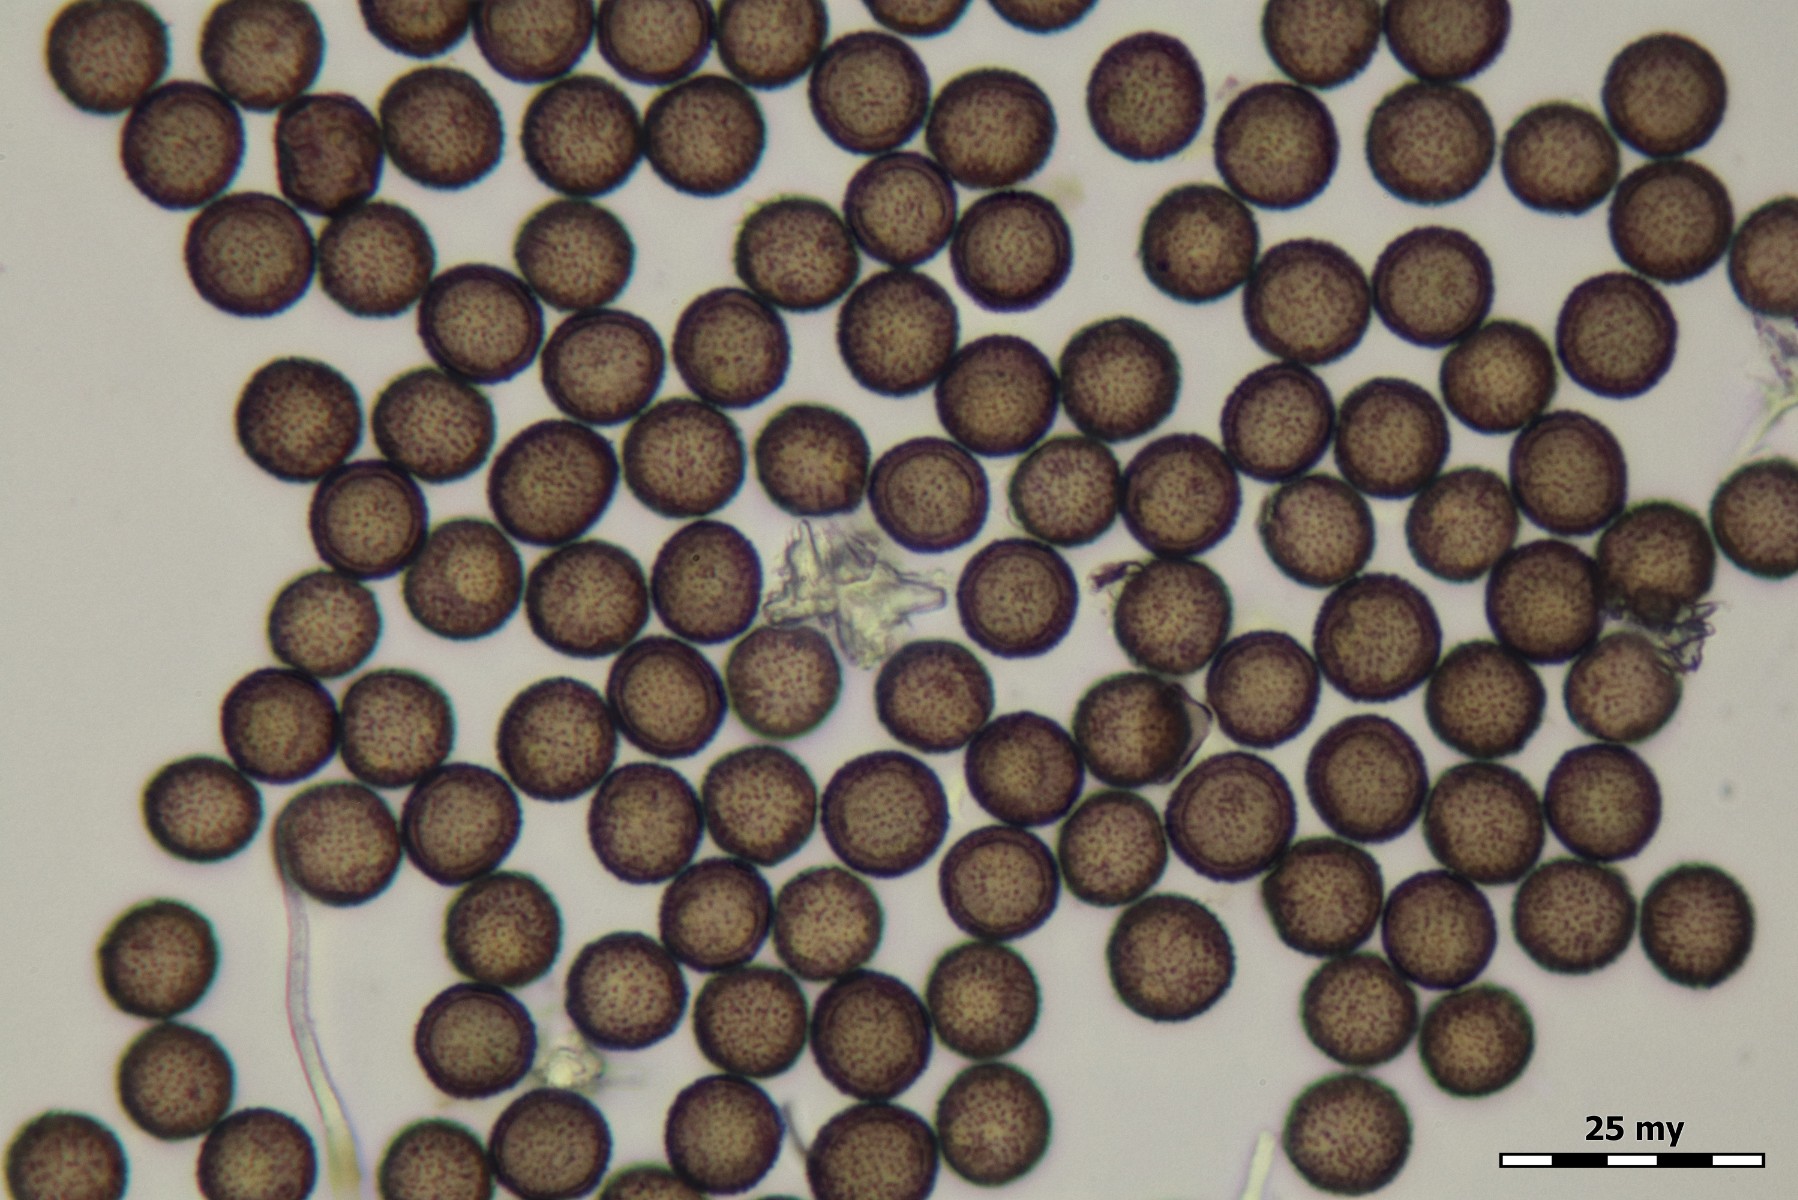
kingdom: Protozoa
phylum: Mycetozoa
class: Myxomycetes
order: Physarales
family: Didymiaceae
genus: Didymium
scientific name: Didymium melanospermum
